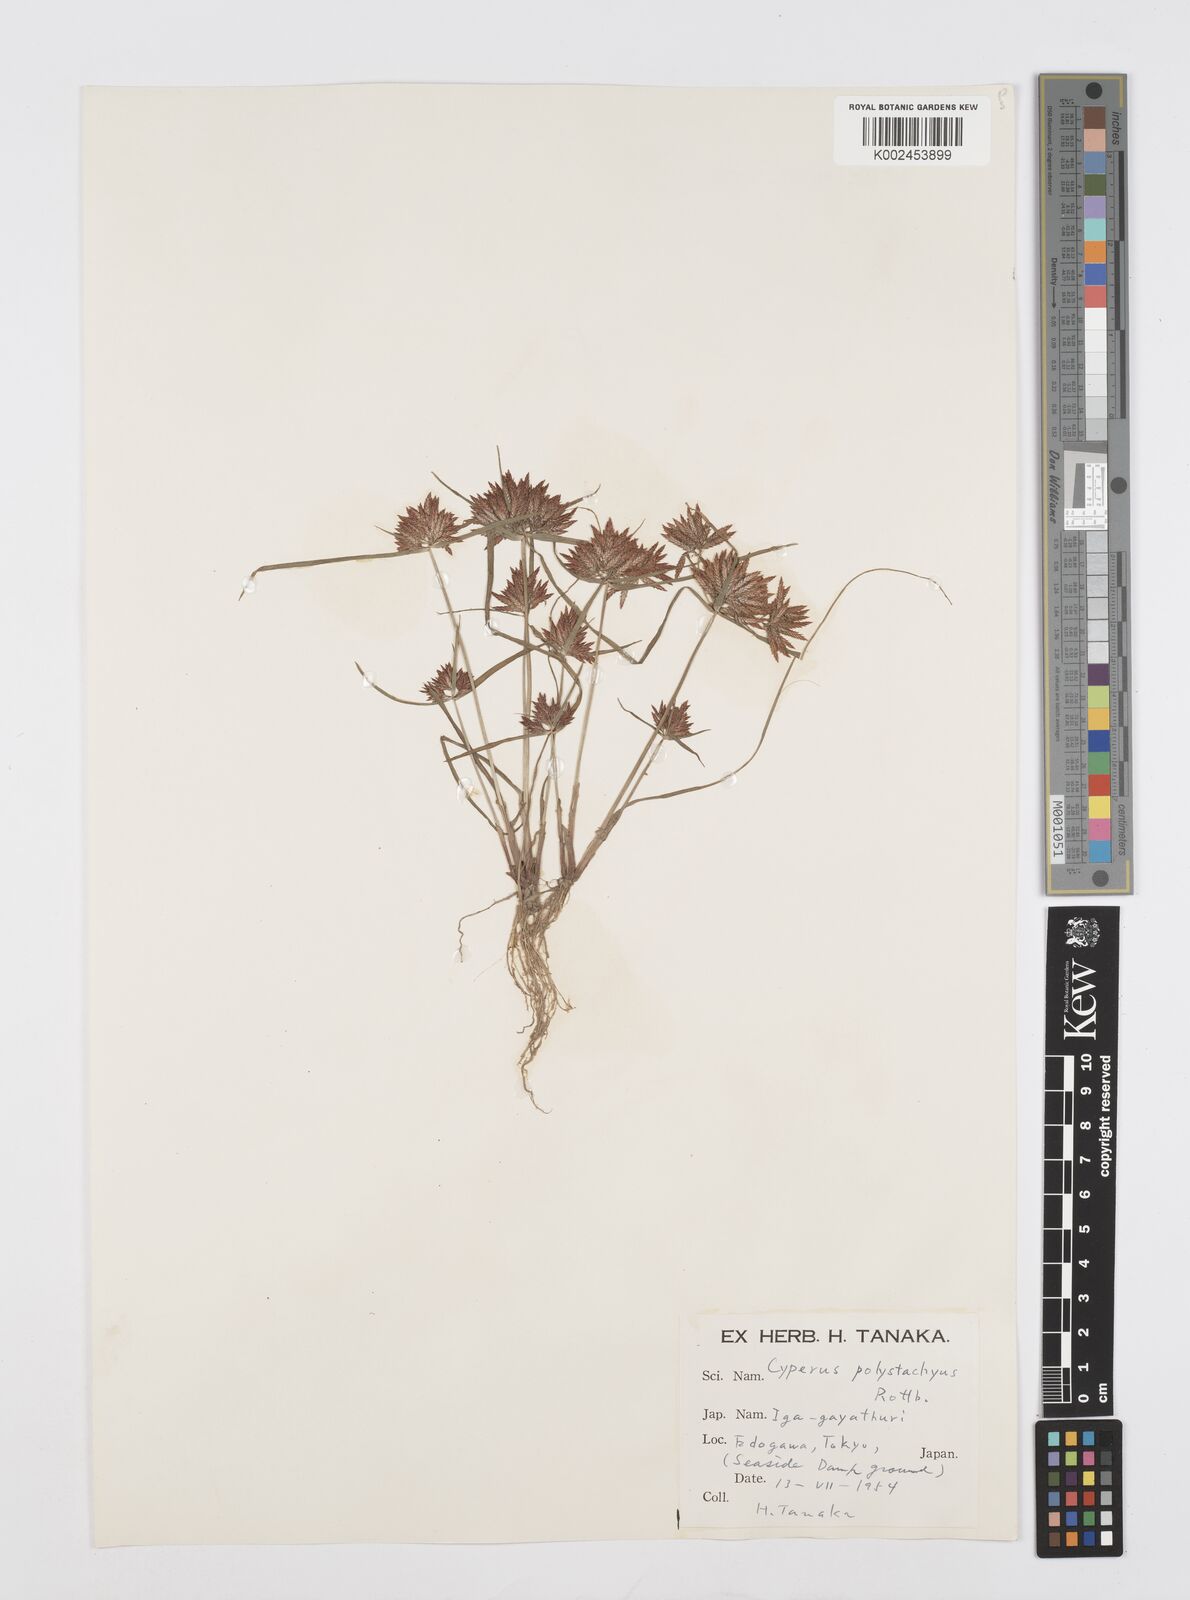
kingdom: Plantae
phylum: Tracheophyta
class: Liliopsida
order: Poales
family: Cyperaceae
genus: Cyperus
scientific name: Cyperus polystachyos
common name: Bunchy flat sedge
